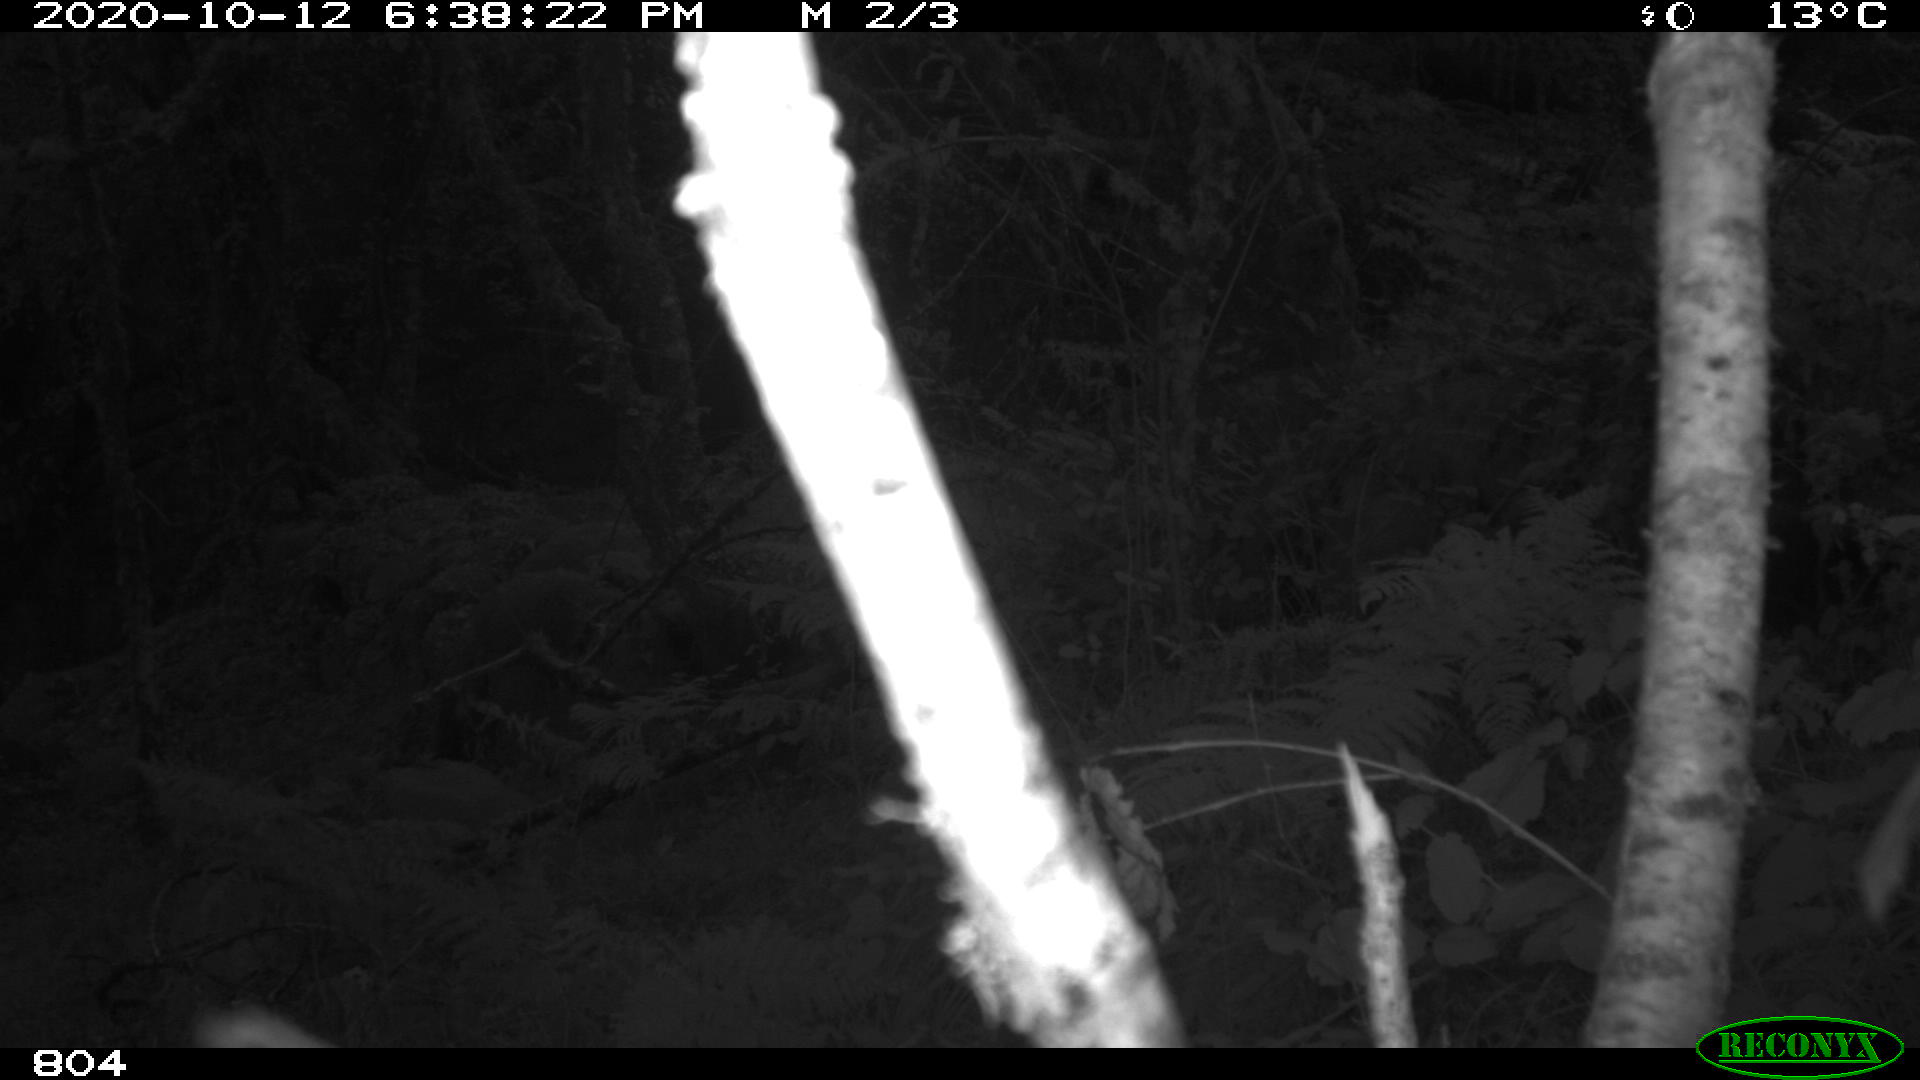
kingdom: Animalia
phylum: Chordata
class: Mammalia
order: Artiodactyla
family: Cervidae
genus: Capreolus
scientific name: Capreolus capreolus
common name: Western roe deer
